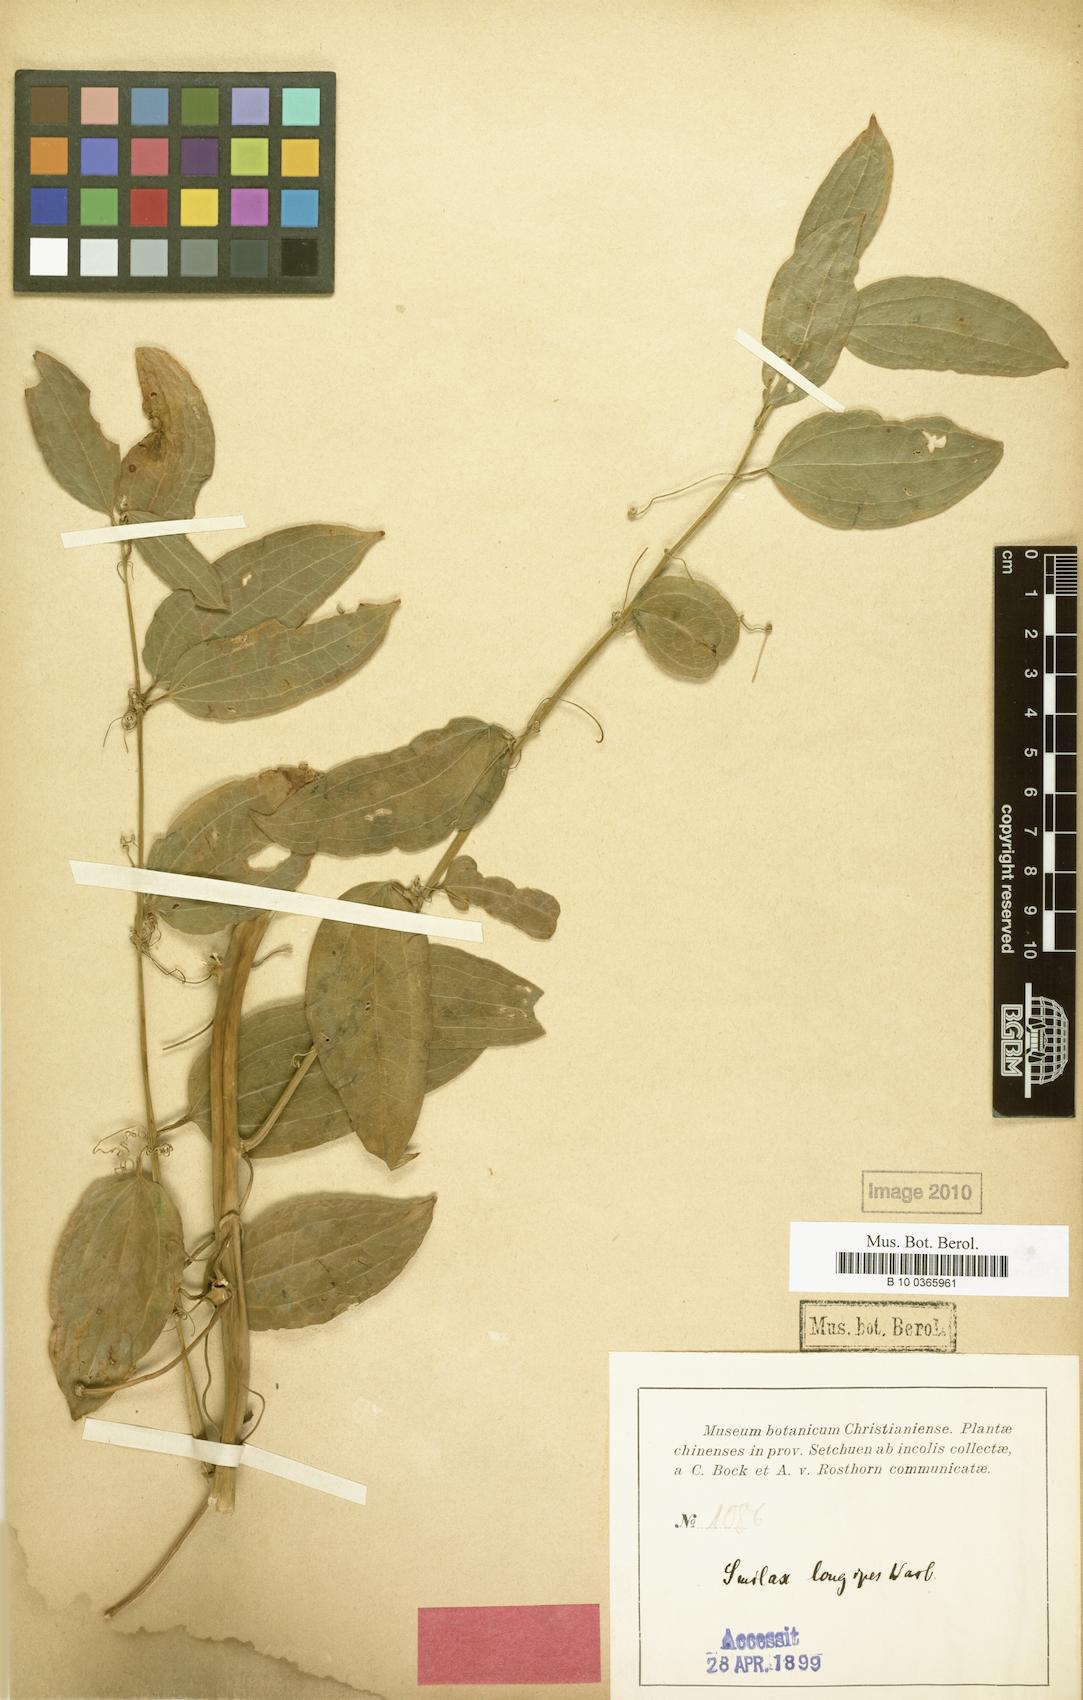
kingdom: Plantae
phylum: Tracheophyta
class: Liliopsida
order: Liliales
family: Smilacaceae
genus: Smilax
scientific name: Smilax riparia
